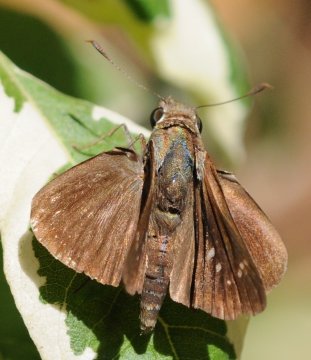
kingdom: Animalia
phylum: Arthropoda
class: Insecta
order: Lepidoptera
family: Hesperiidae
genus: Pelopidas
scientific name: Pelopidas mathias
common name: Small Branded Swift
